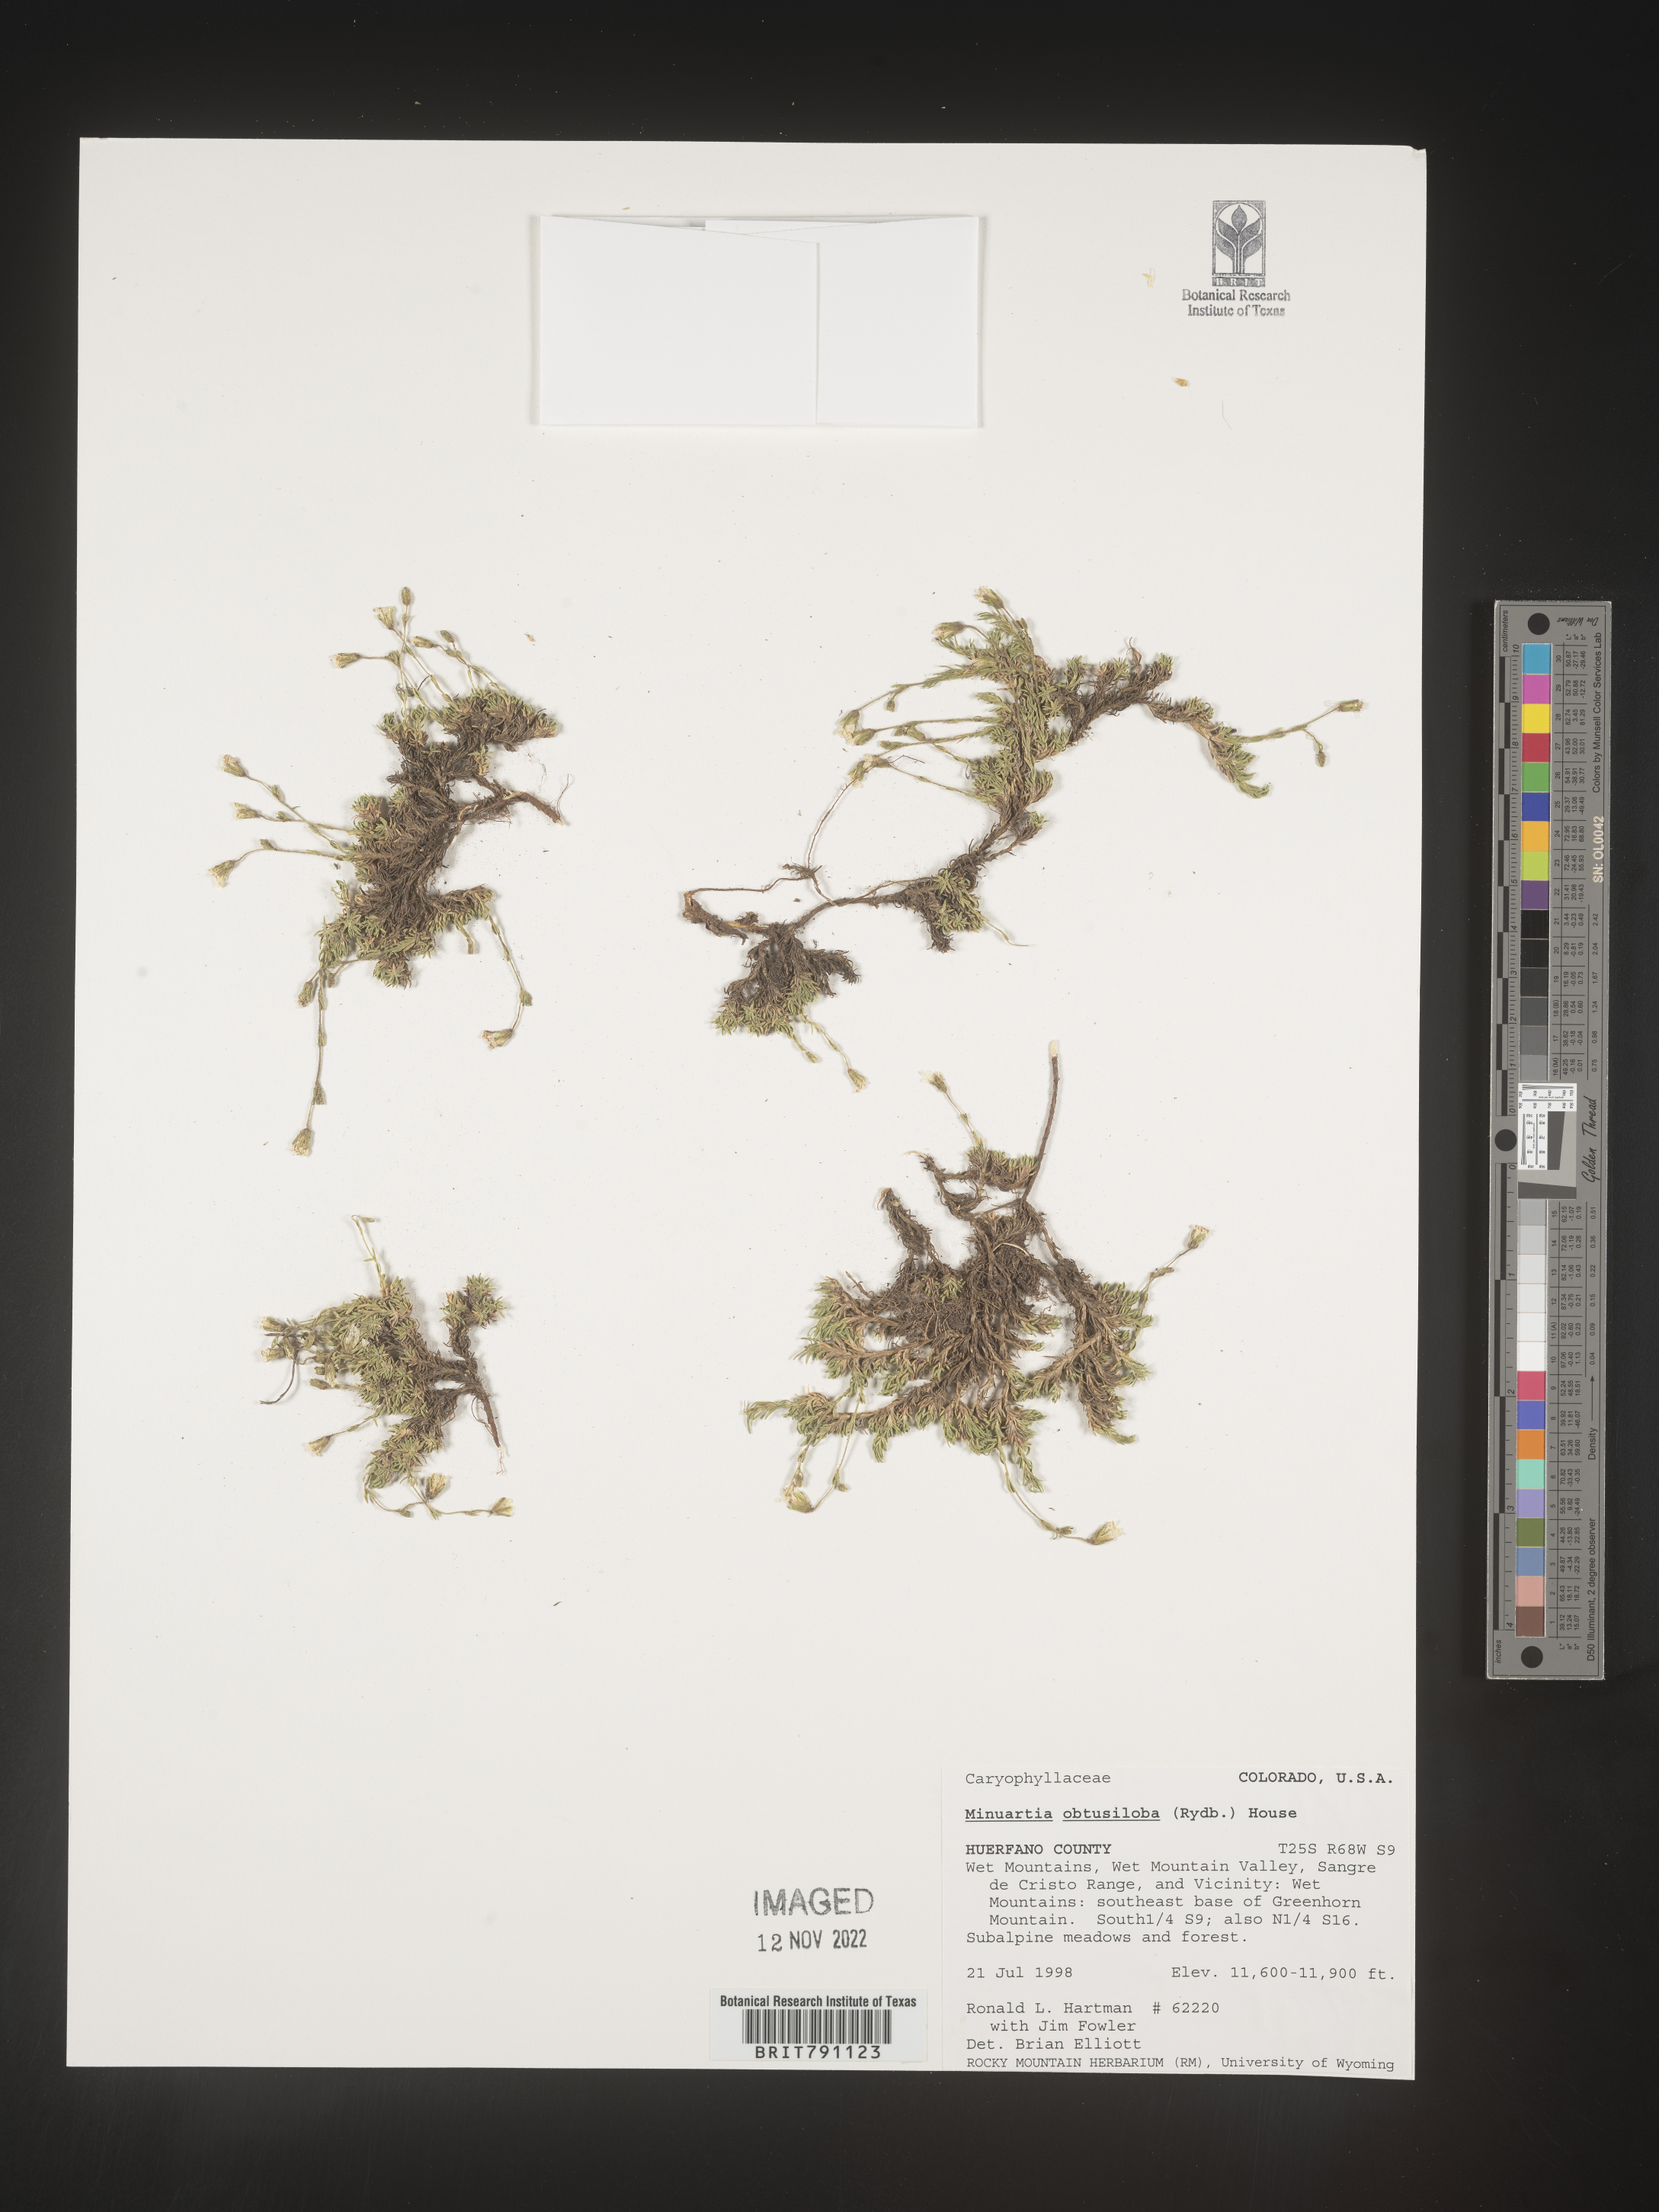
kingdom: Plantae
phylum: Tracheophyta
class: Magnoliopsida
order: Caryophyllales
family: Caryophyllaceae
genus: Cherleria
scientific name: Cherleria obtusiloba
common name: Alpine stitchwort
